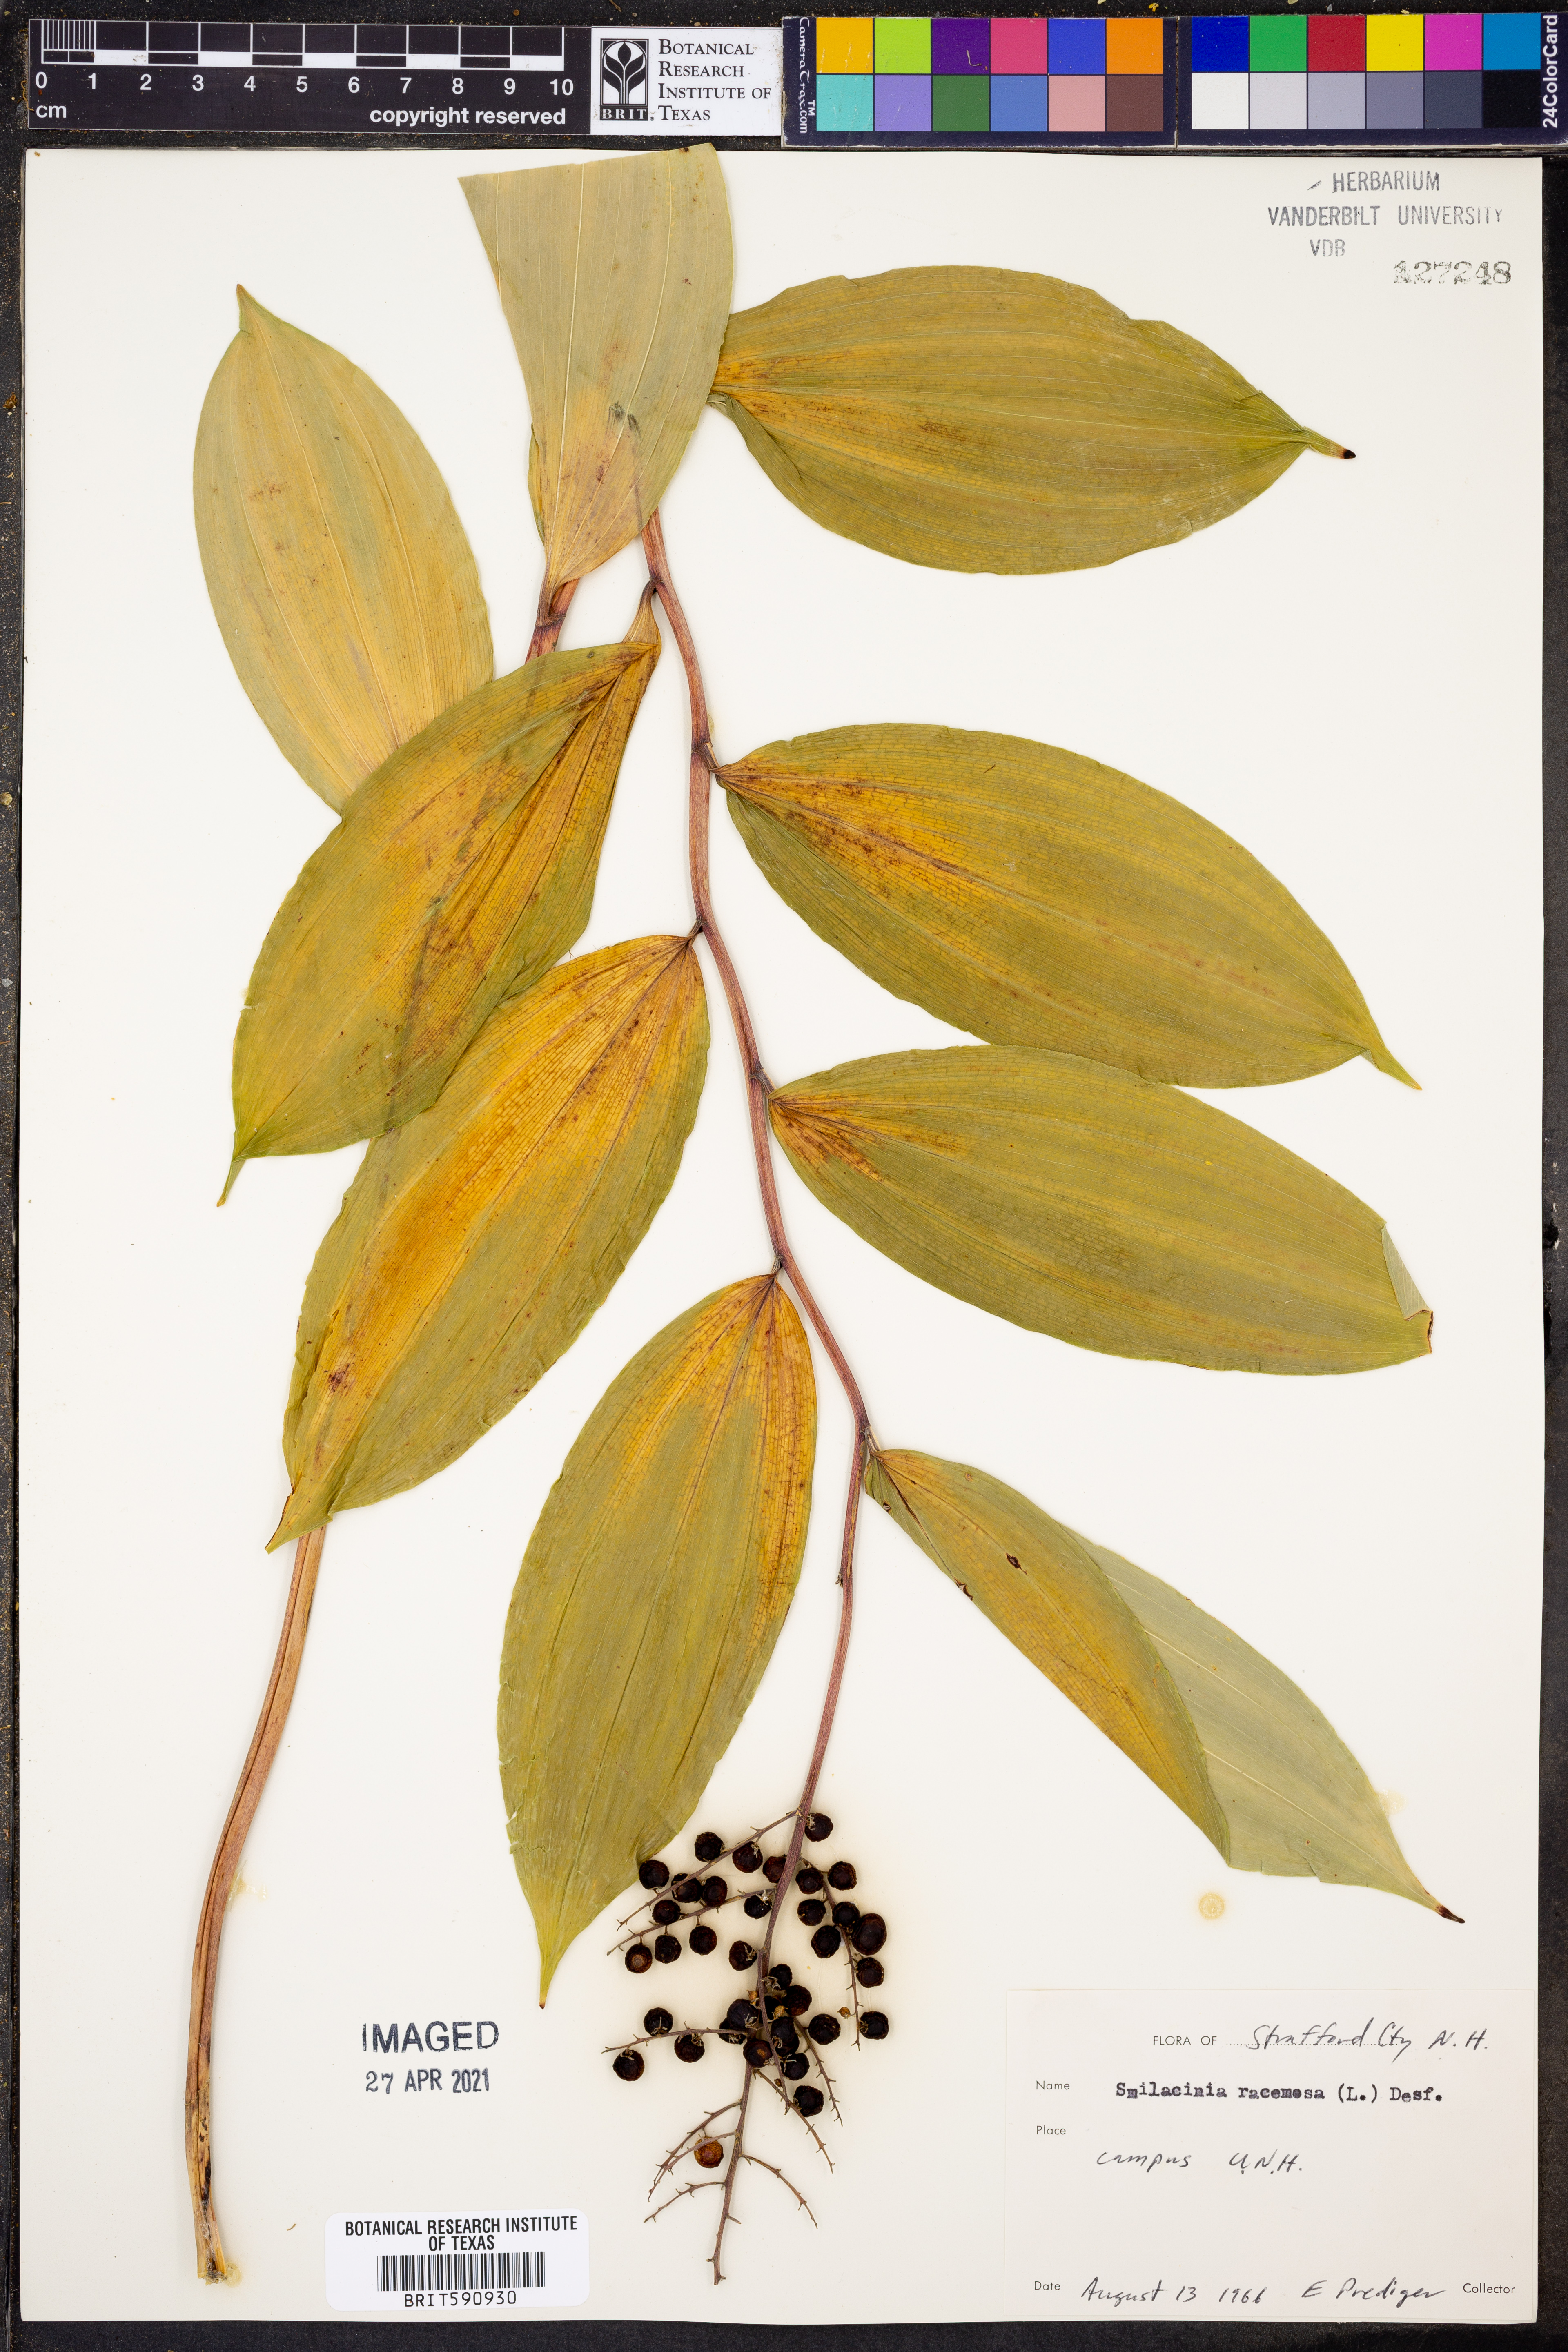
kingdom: Plantae
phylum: Tracheophyta
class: Liliopsida
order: Asparagales
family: Asparagaceae
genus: Maianthemum
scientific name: Maianthemum racemosum
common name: False spikenard
